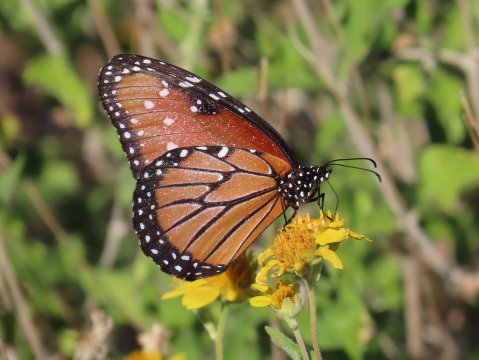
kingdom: Animalia
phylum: Arthropoda
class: Insecta
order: Lepidoptera
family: Nymphalidae
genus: Danaus
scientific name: Danaus gilippus
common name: Queen
